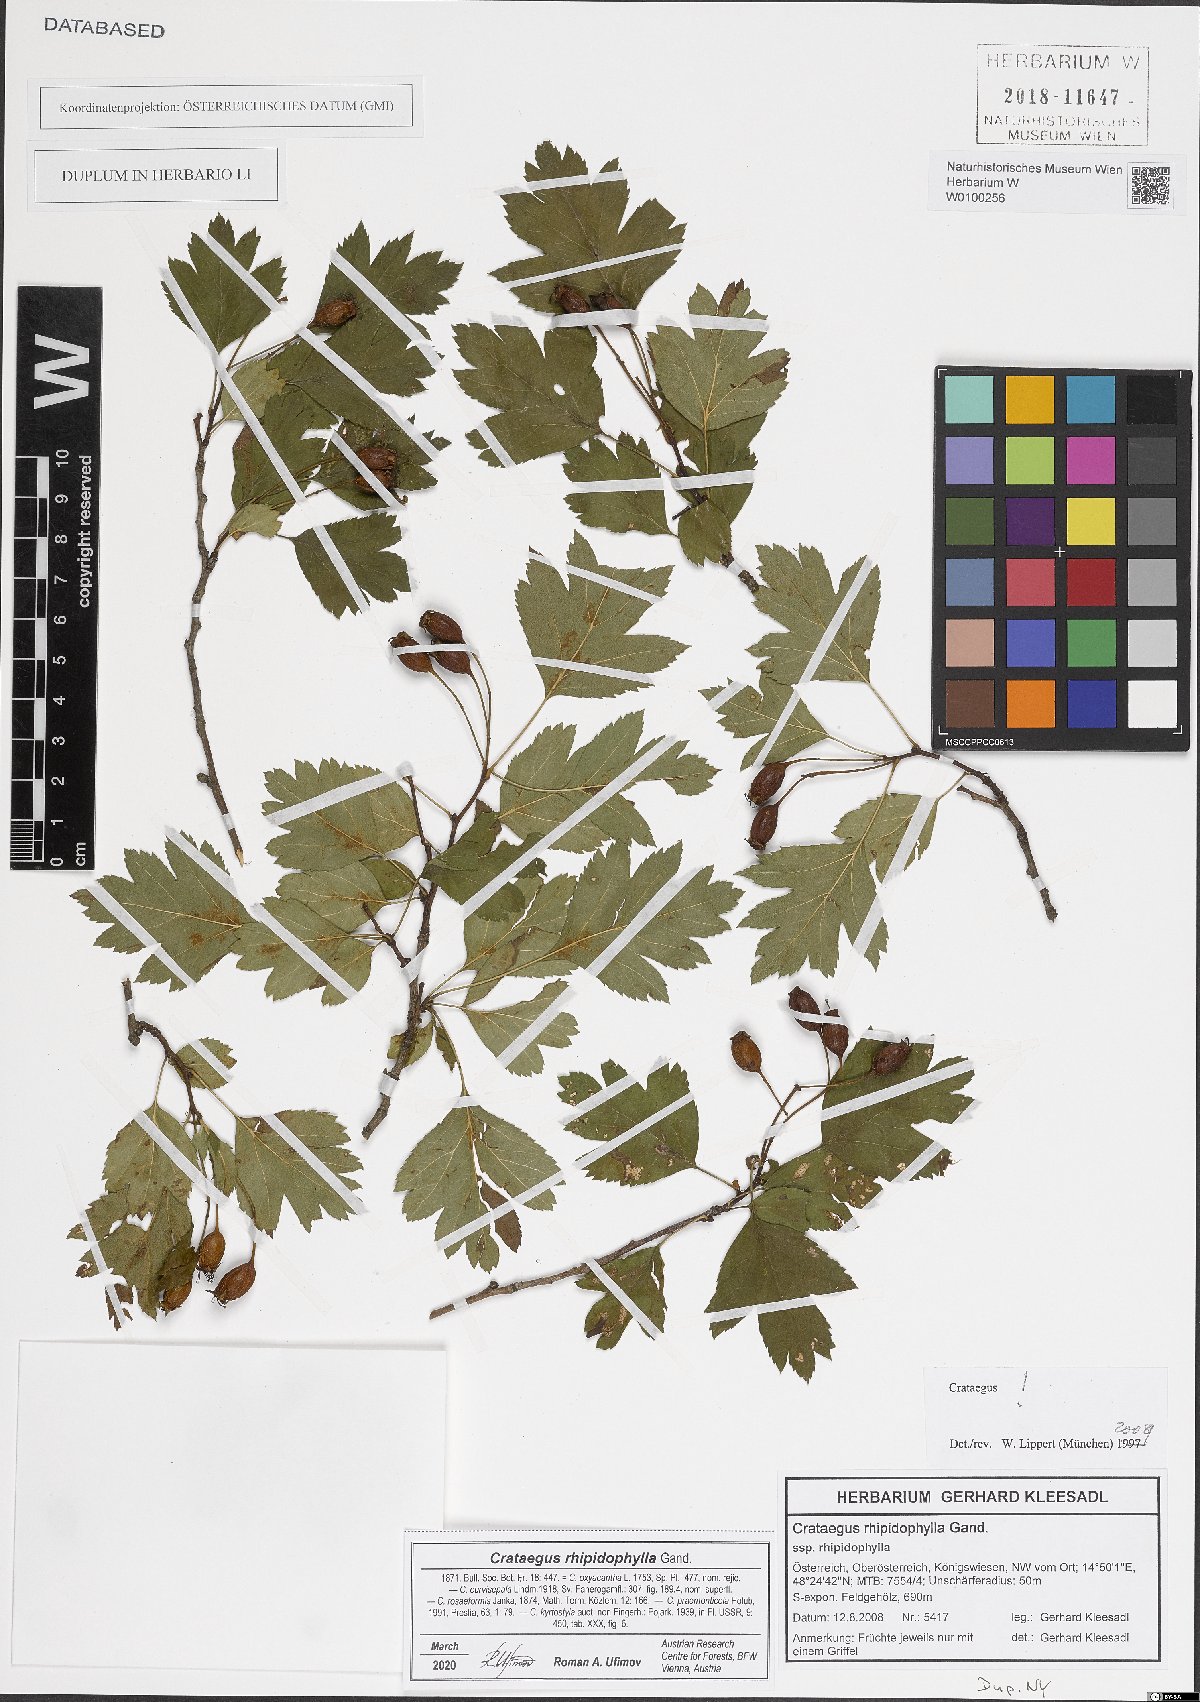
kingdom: Plantae
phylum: Tracheophyta
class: Magnoliopsida
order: Rosales
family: Rosaceae
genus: Crataegus
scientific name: Crataegus rhipidophylla
